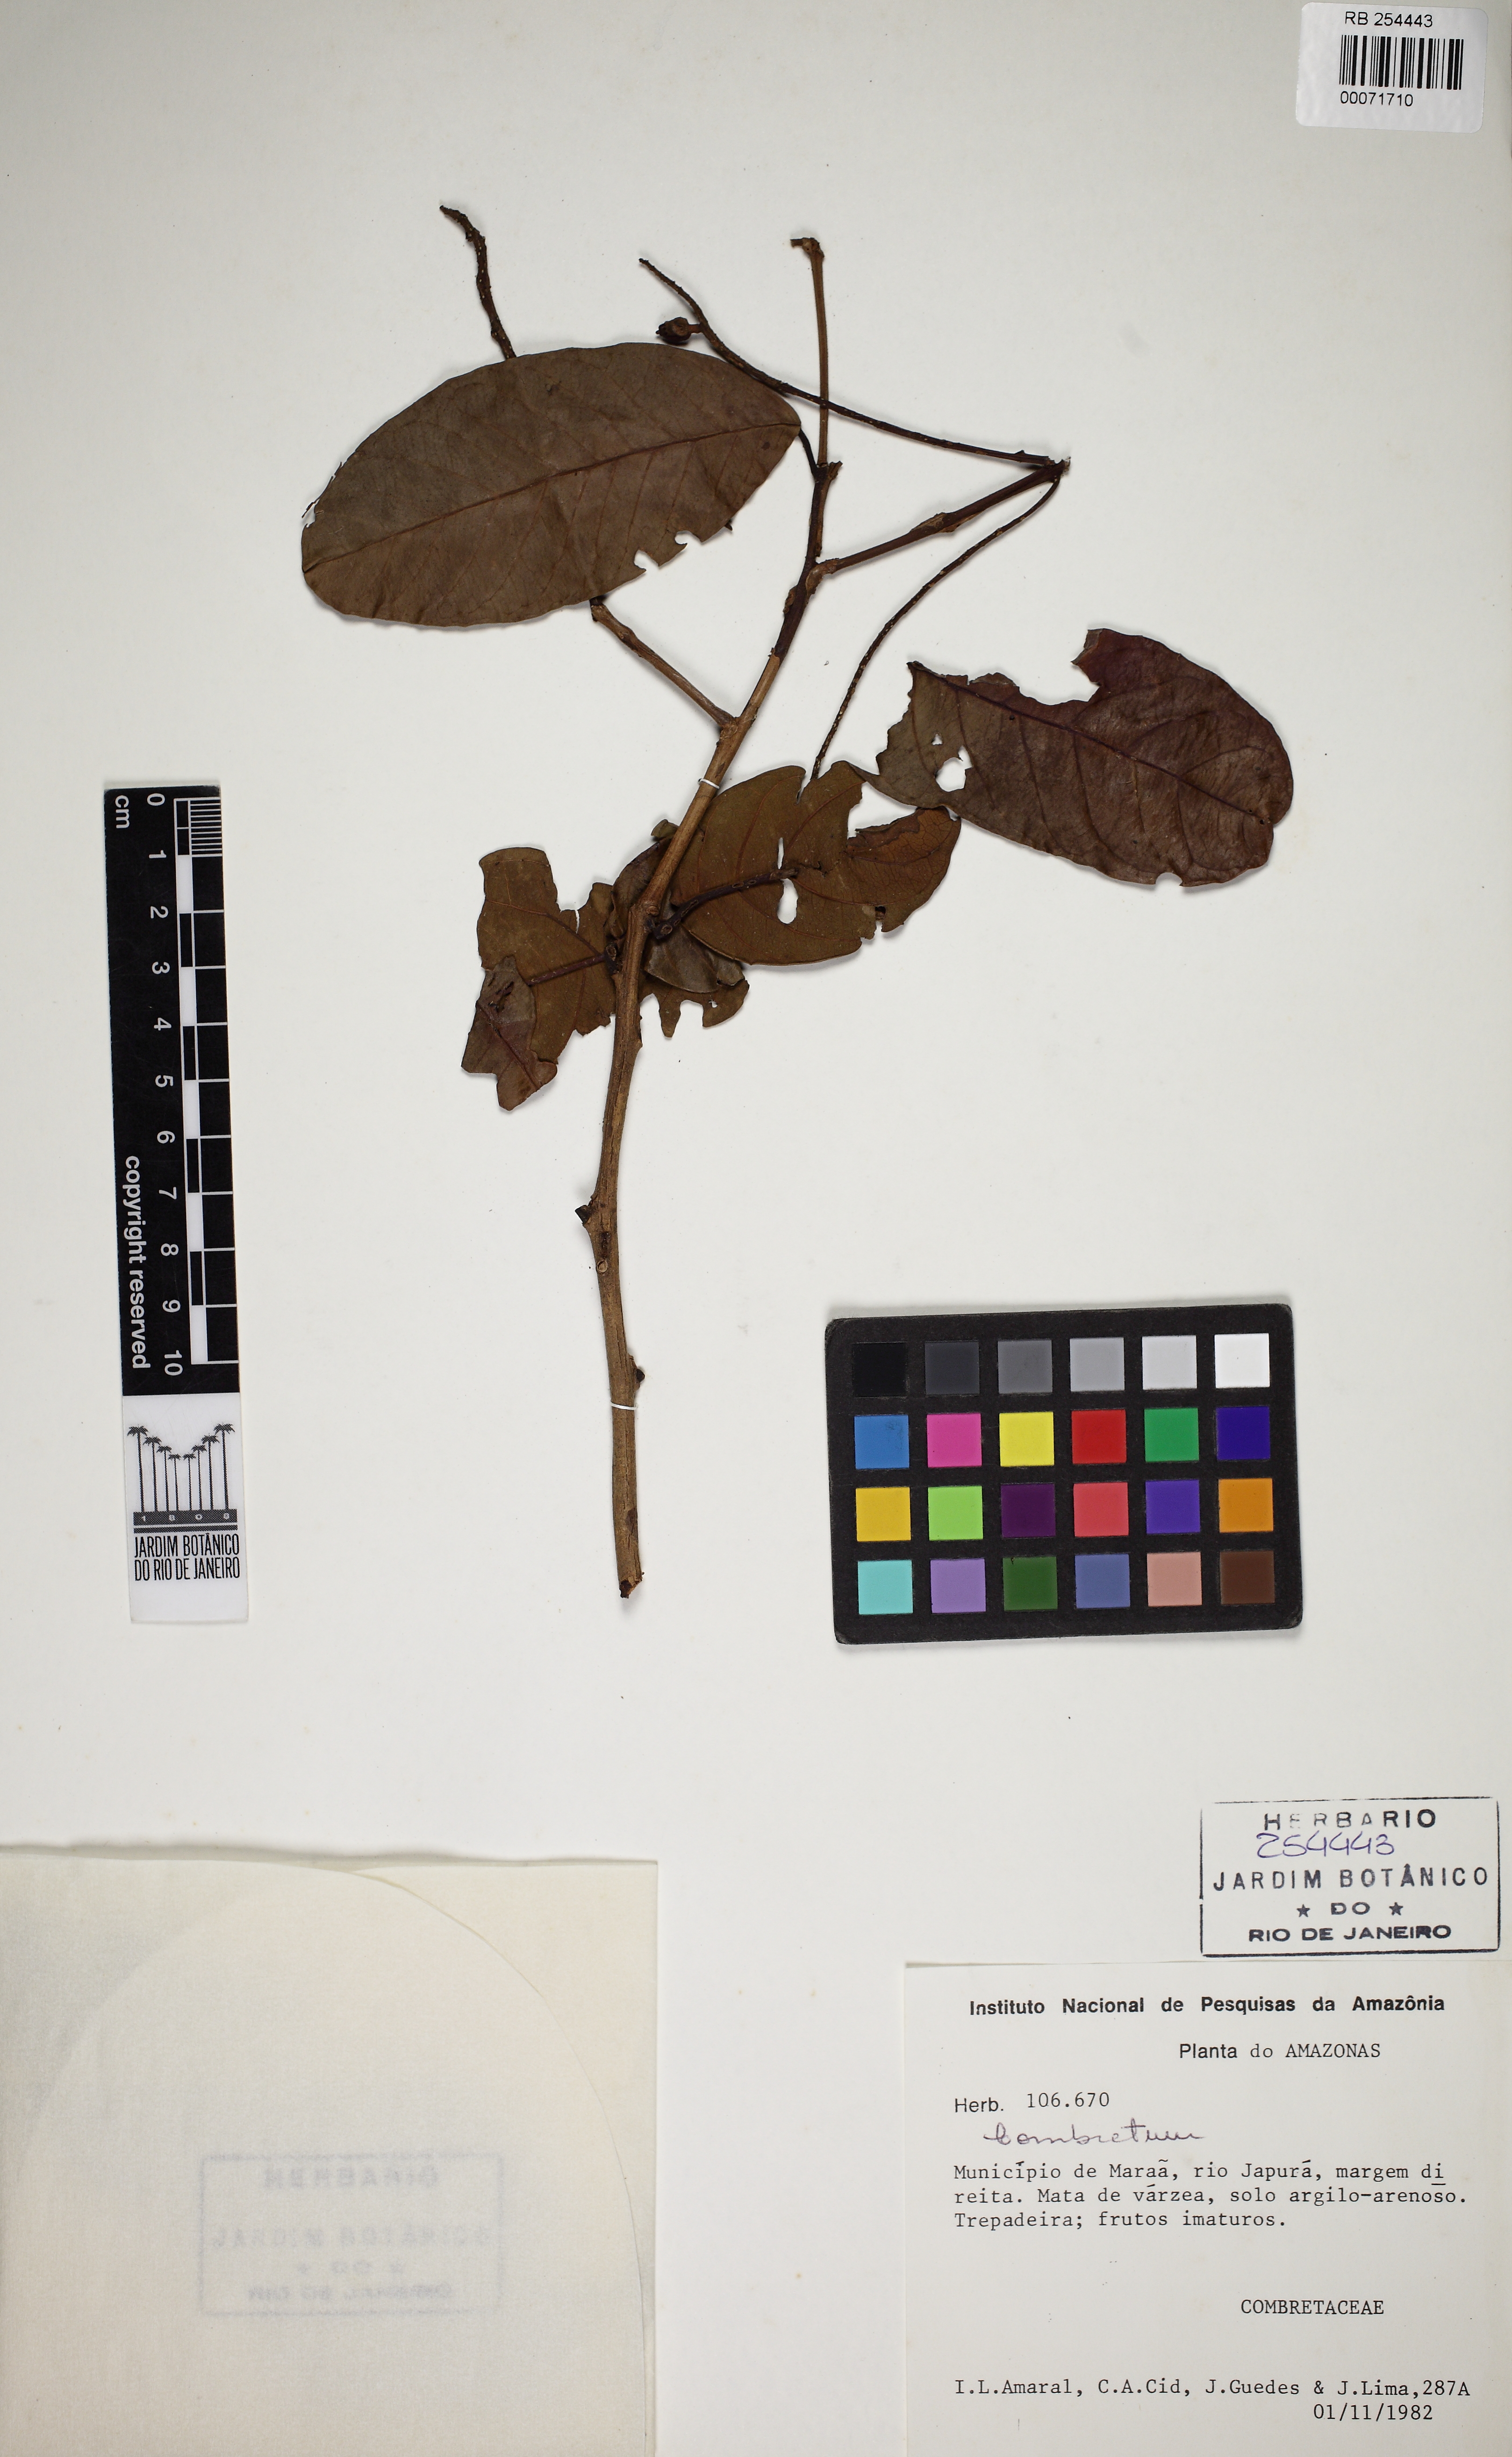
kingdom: Plantae
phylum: Tracheophyta
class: Magnoliopsida
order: Myrtales
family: Combretaceae
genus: Combretum
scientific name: Combretum
